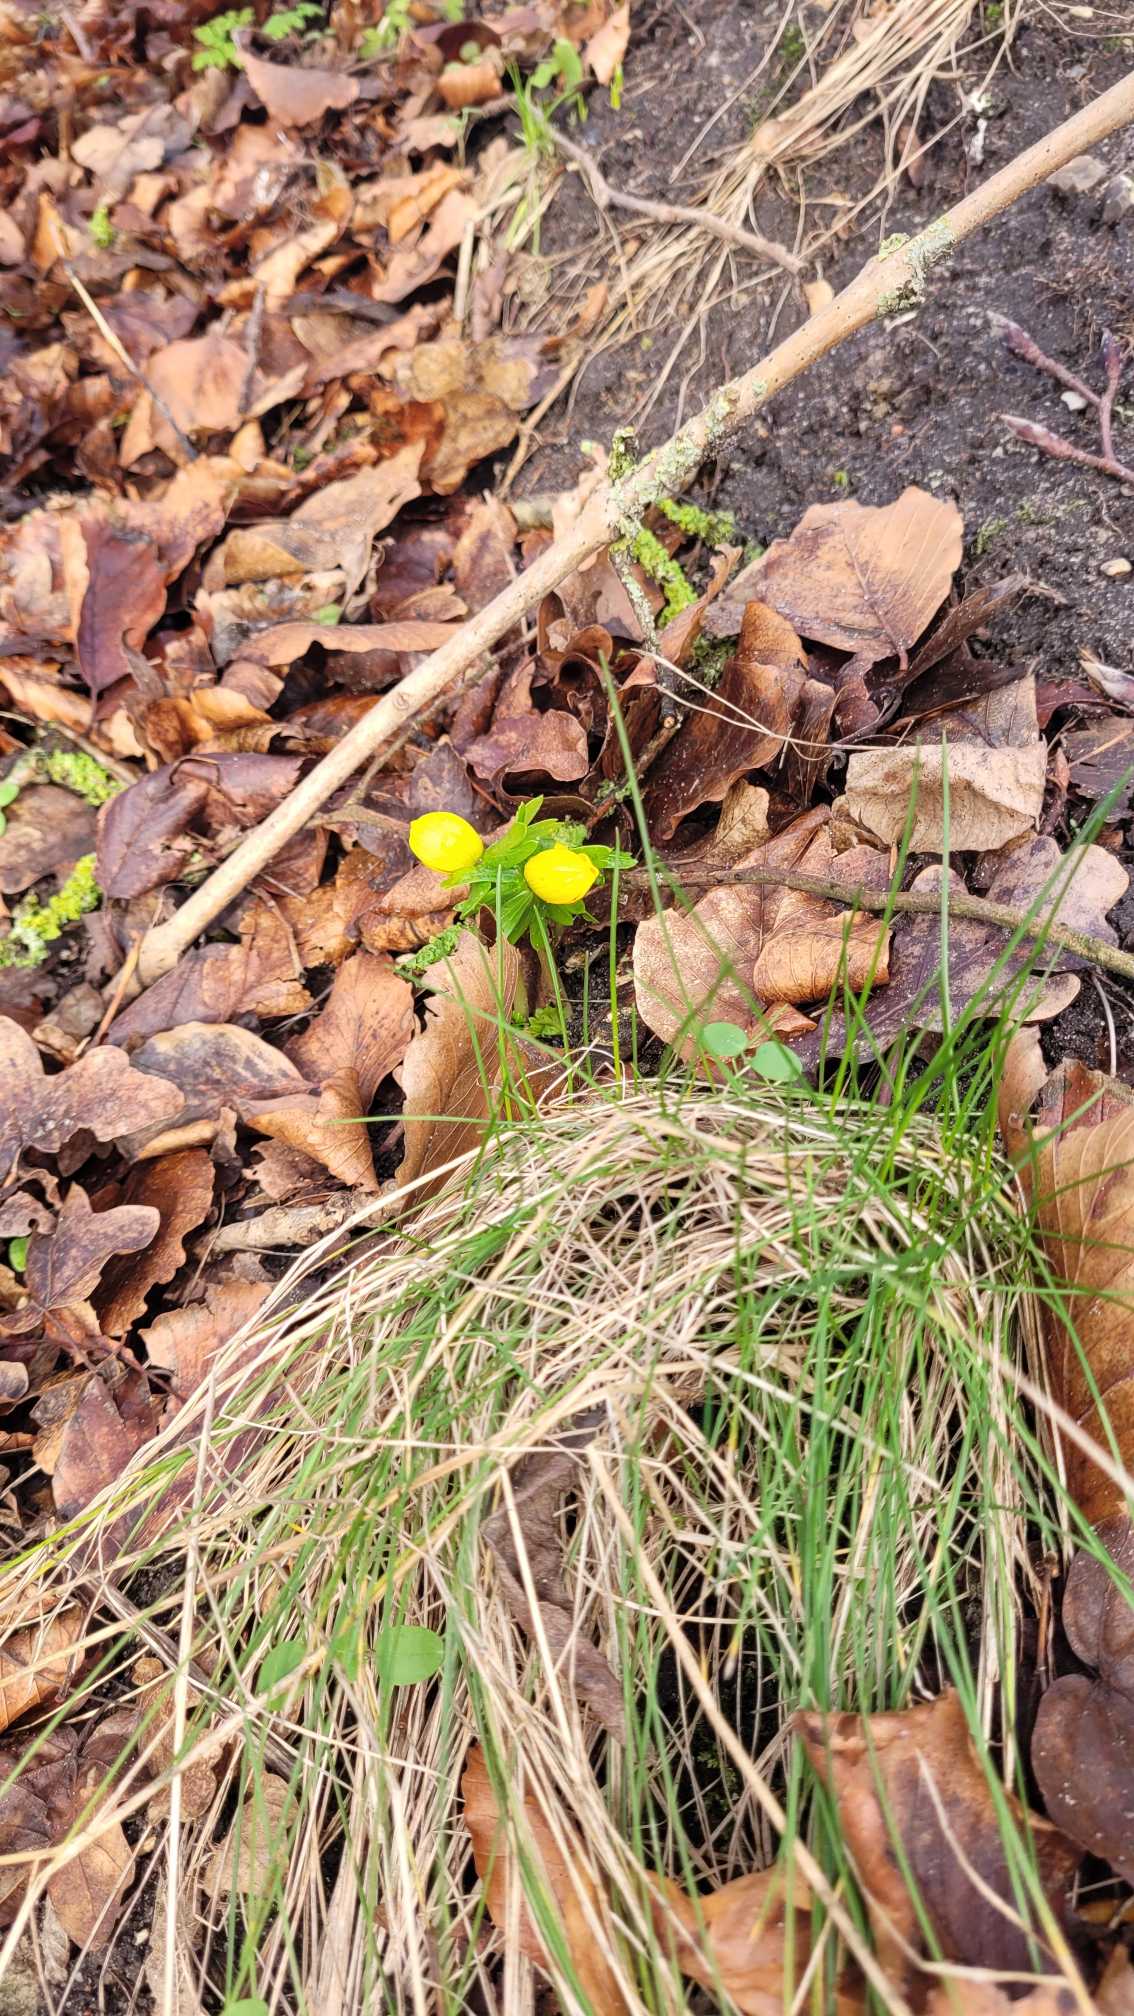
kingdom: Plantae
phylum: Tracheophyta
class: Magnoliopsida
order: Ranunculales
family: Ranunculaceae
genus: Eranthis
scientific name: Eranthis hyemalis
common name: Erantis
